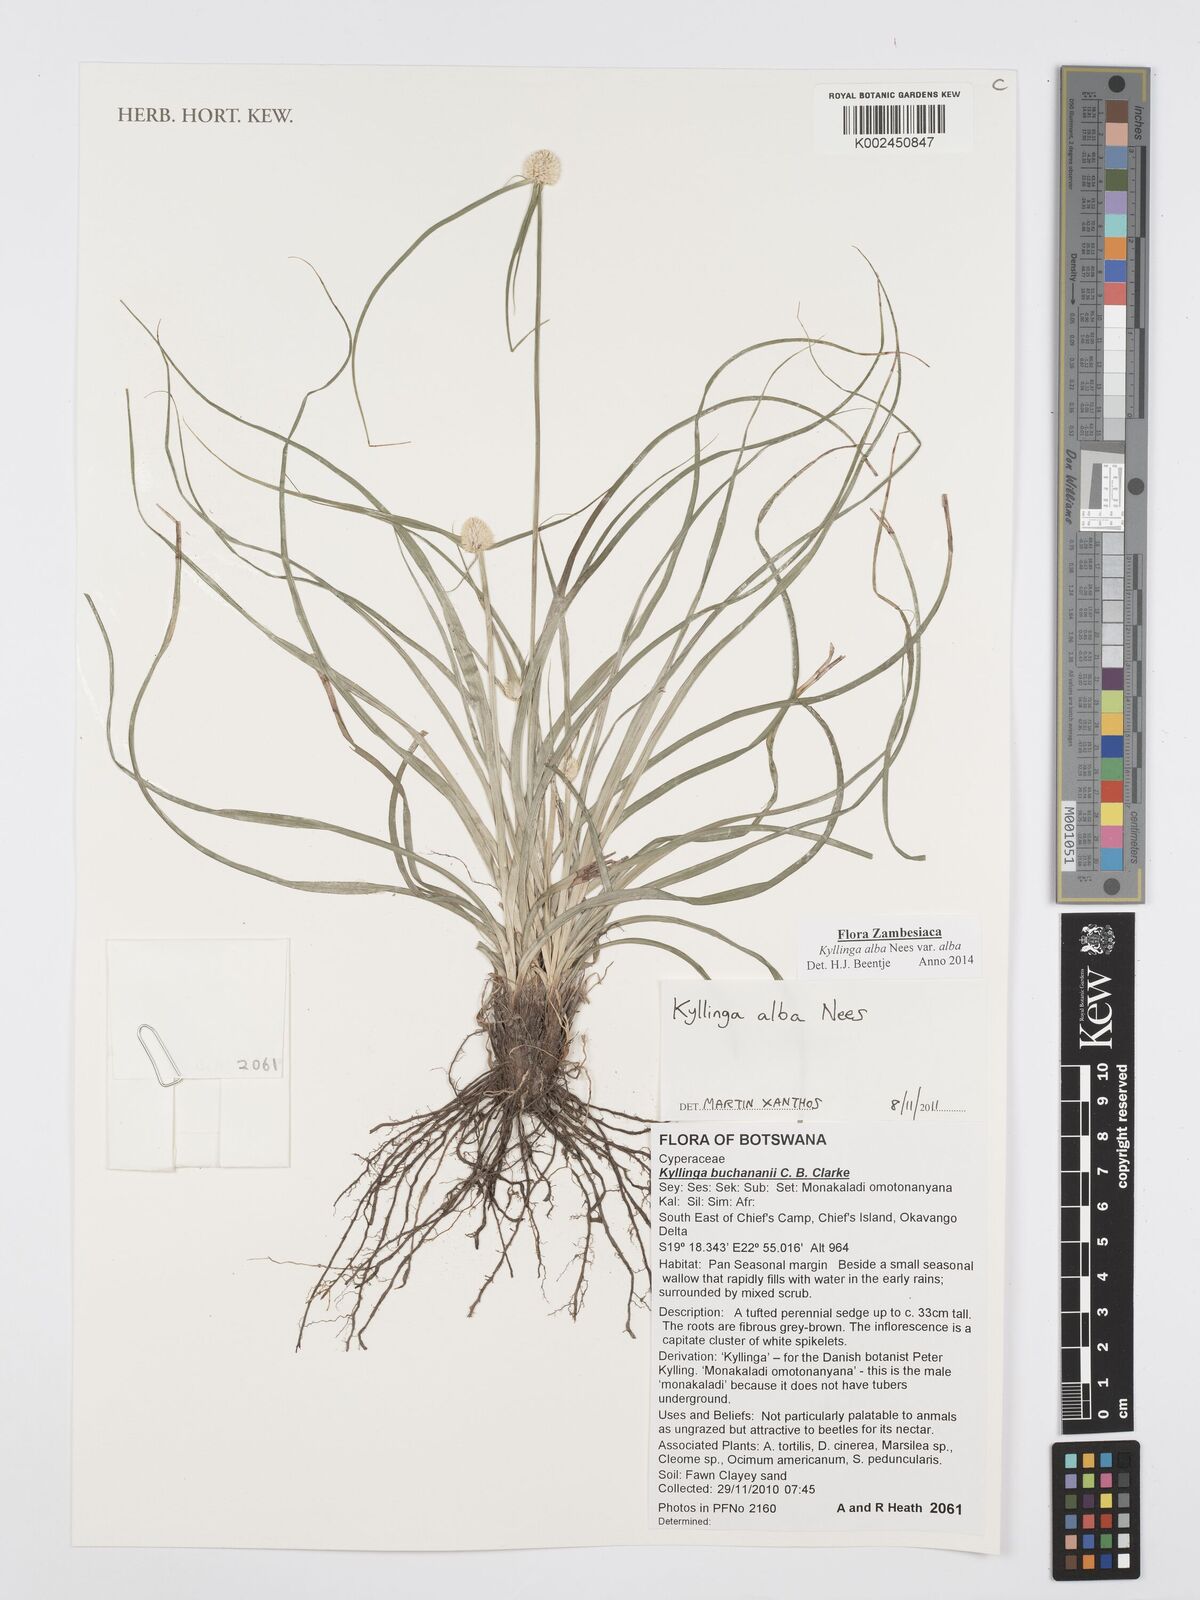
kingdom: Plantae
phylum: Tracheophyta
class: Liliopsida
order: Poales
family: Cyperaceae
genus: Cyperus
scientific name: Cyperus
